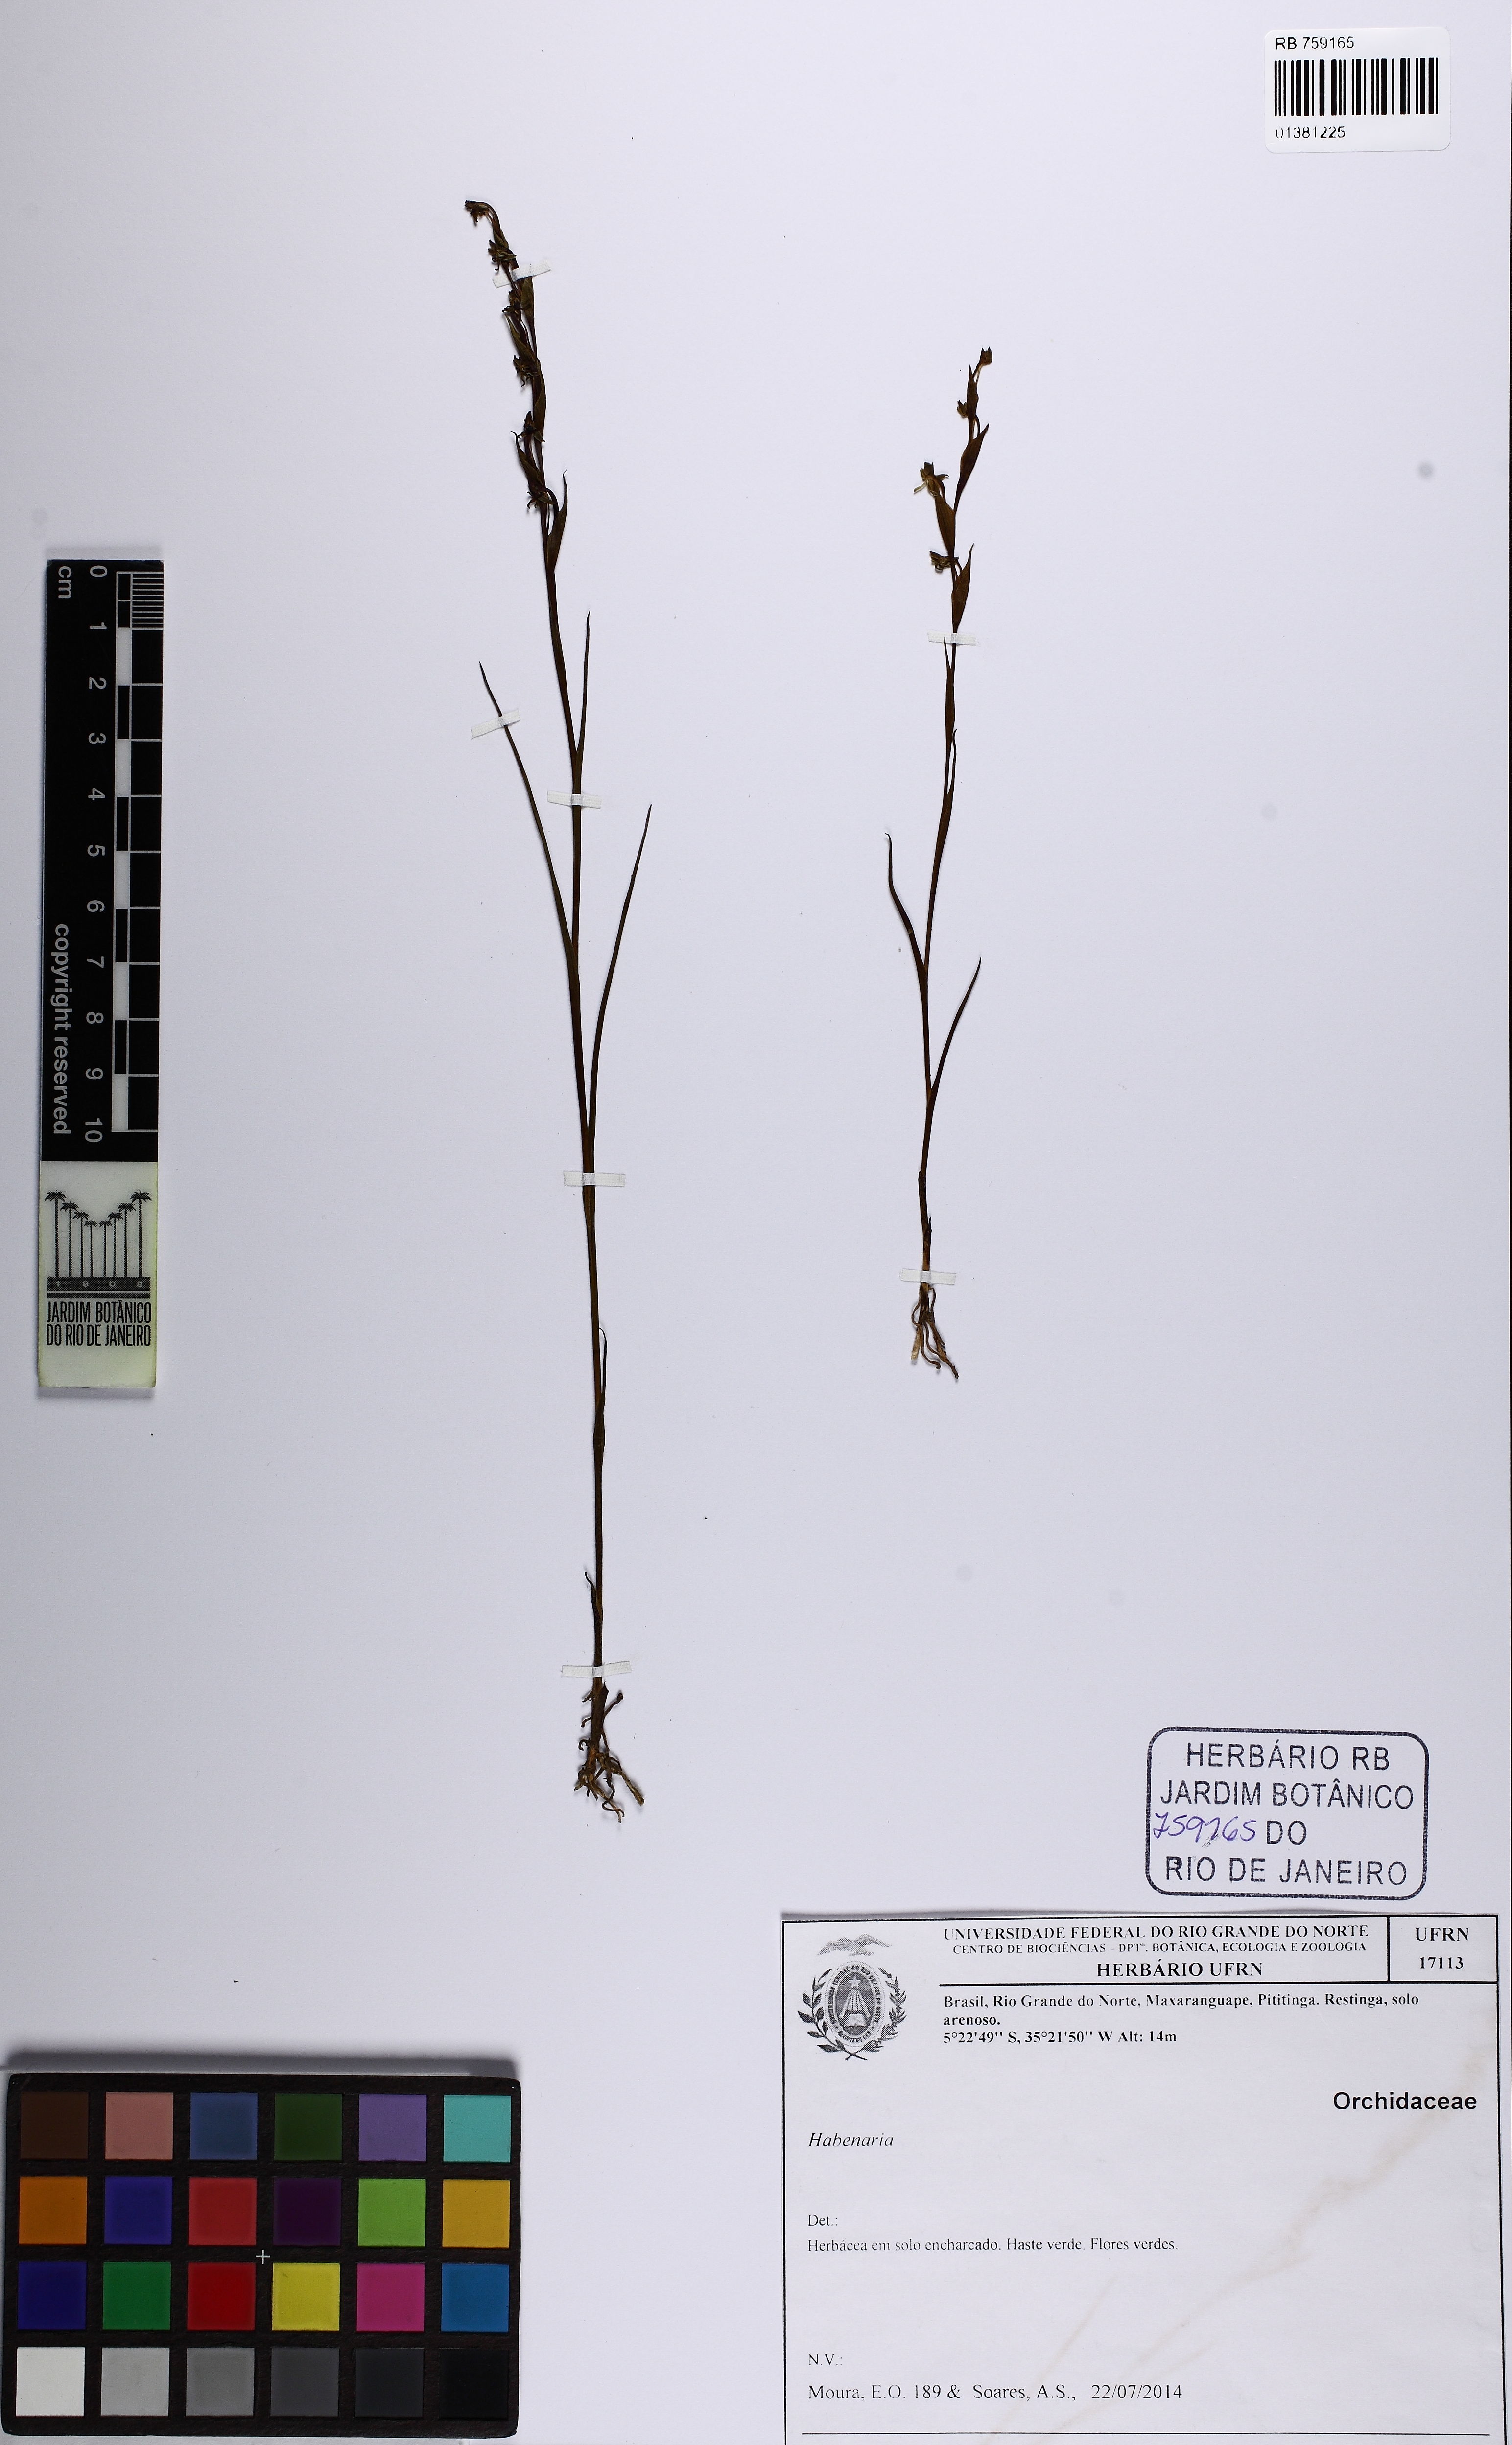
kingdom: Plantae
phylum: Tracheophyta
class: Liliopsida
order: Asparagales
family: Orchidaceae
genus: Habenaria
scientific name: Habenaria
